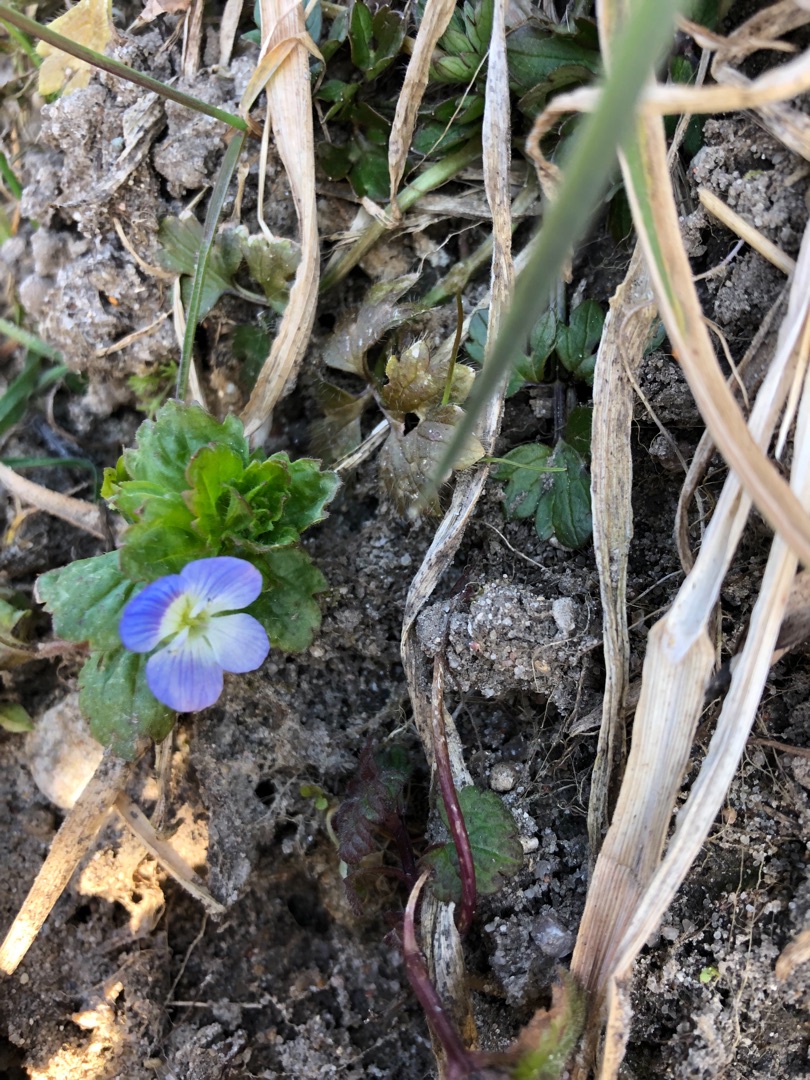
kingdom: Plantae
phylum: Tracheophyta
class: Magnoliopsida
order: Lamiales
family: Plantaginaceae
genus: Veronica
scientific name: Veronica persica
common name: Storkronet ærenpris
